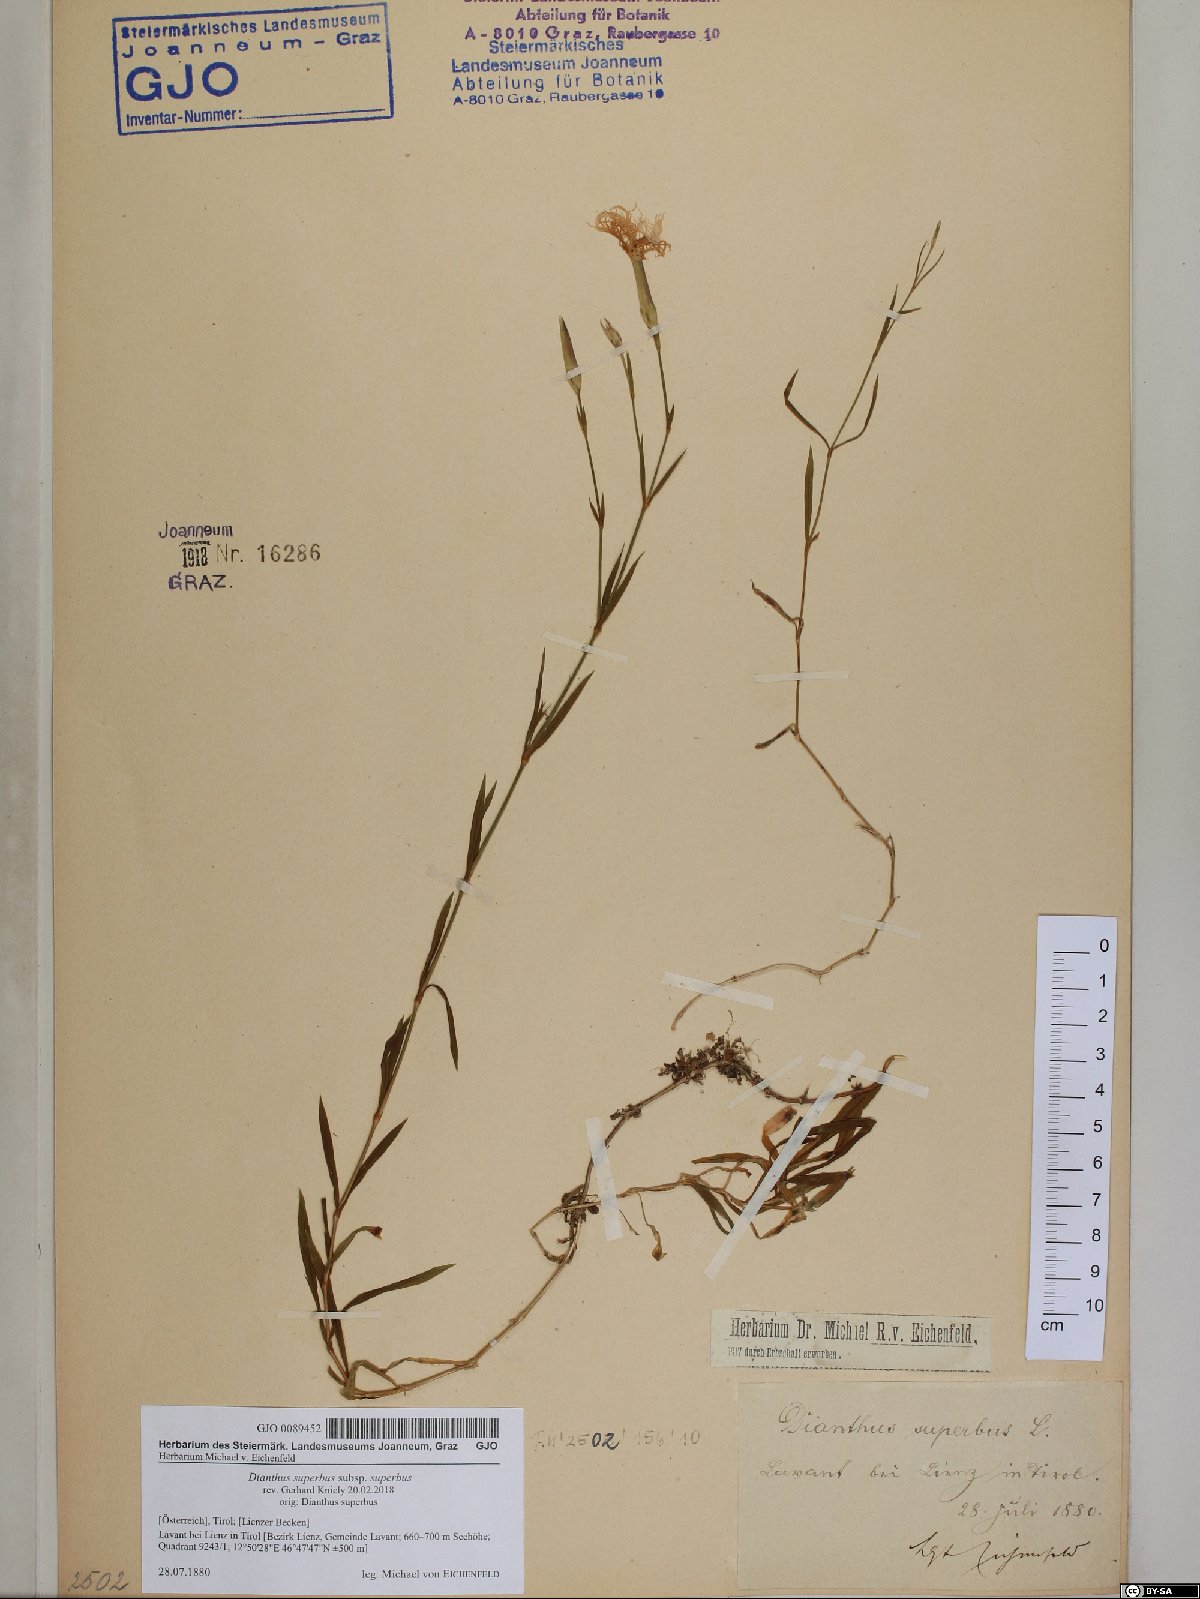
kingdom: Plantae
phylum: Tracheophyta
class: Magnoliopsida
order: Caryophyllales
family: Caryophyllaceae
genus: Dianthus
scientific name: Dianthus superbus
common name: Fringed pink
